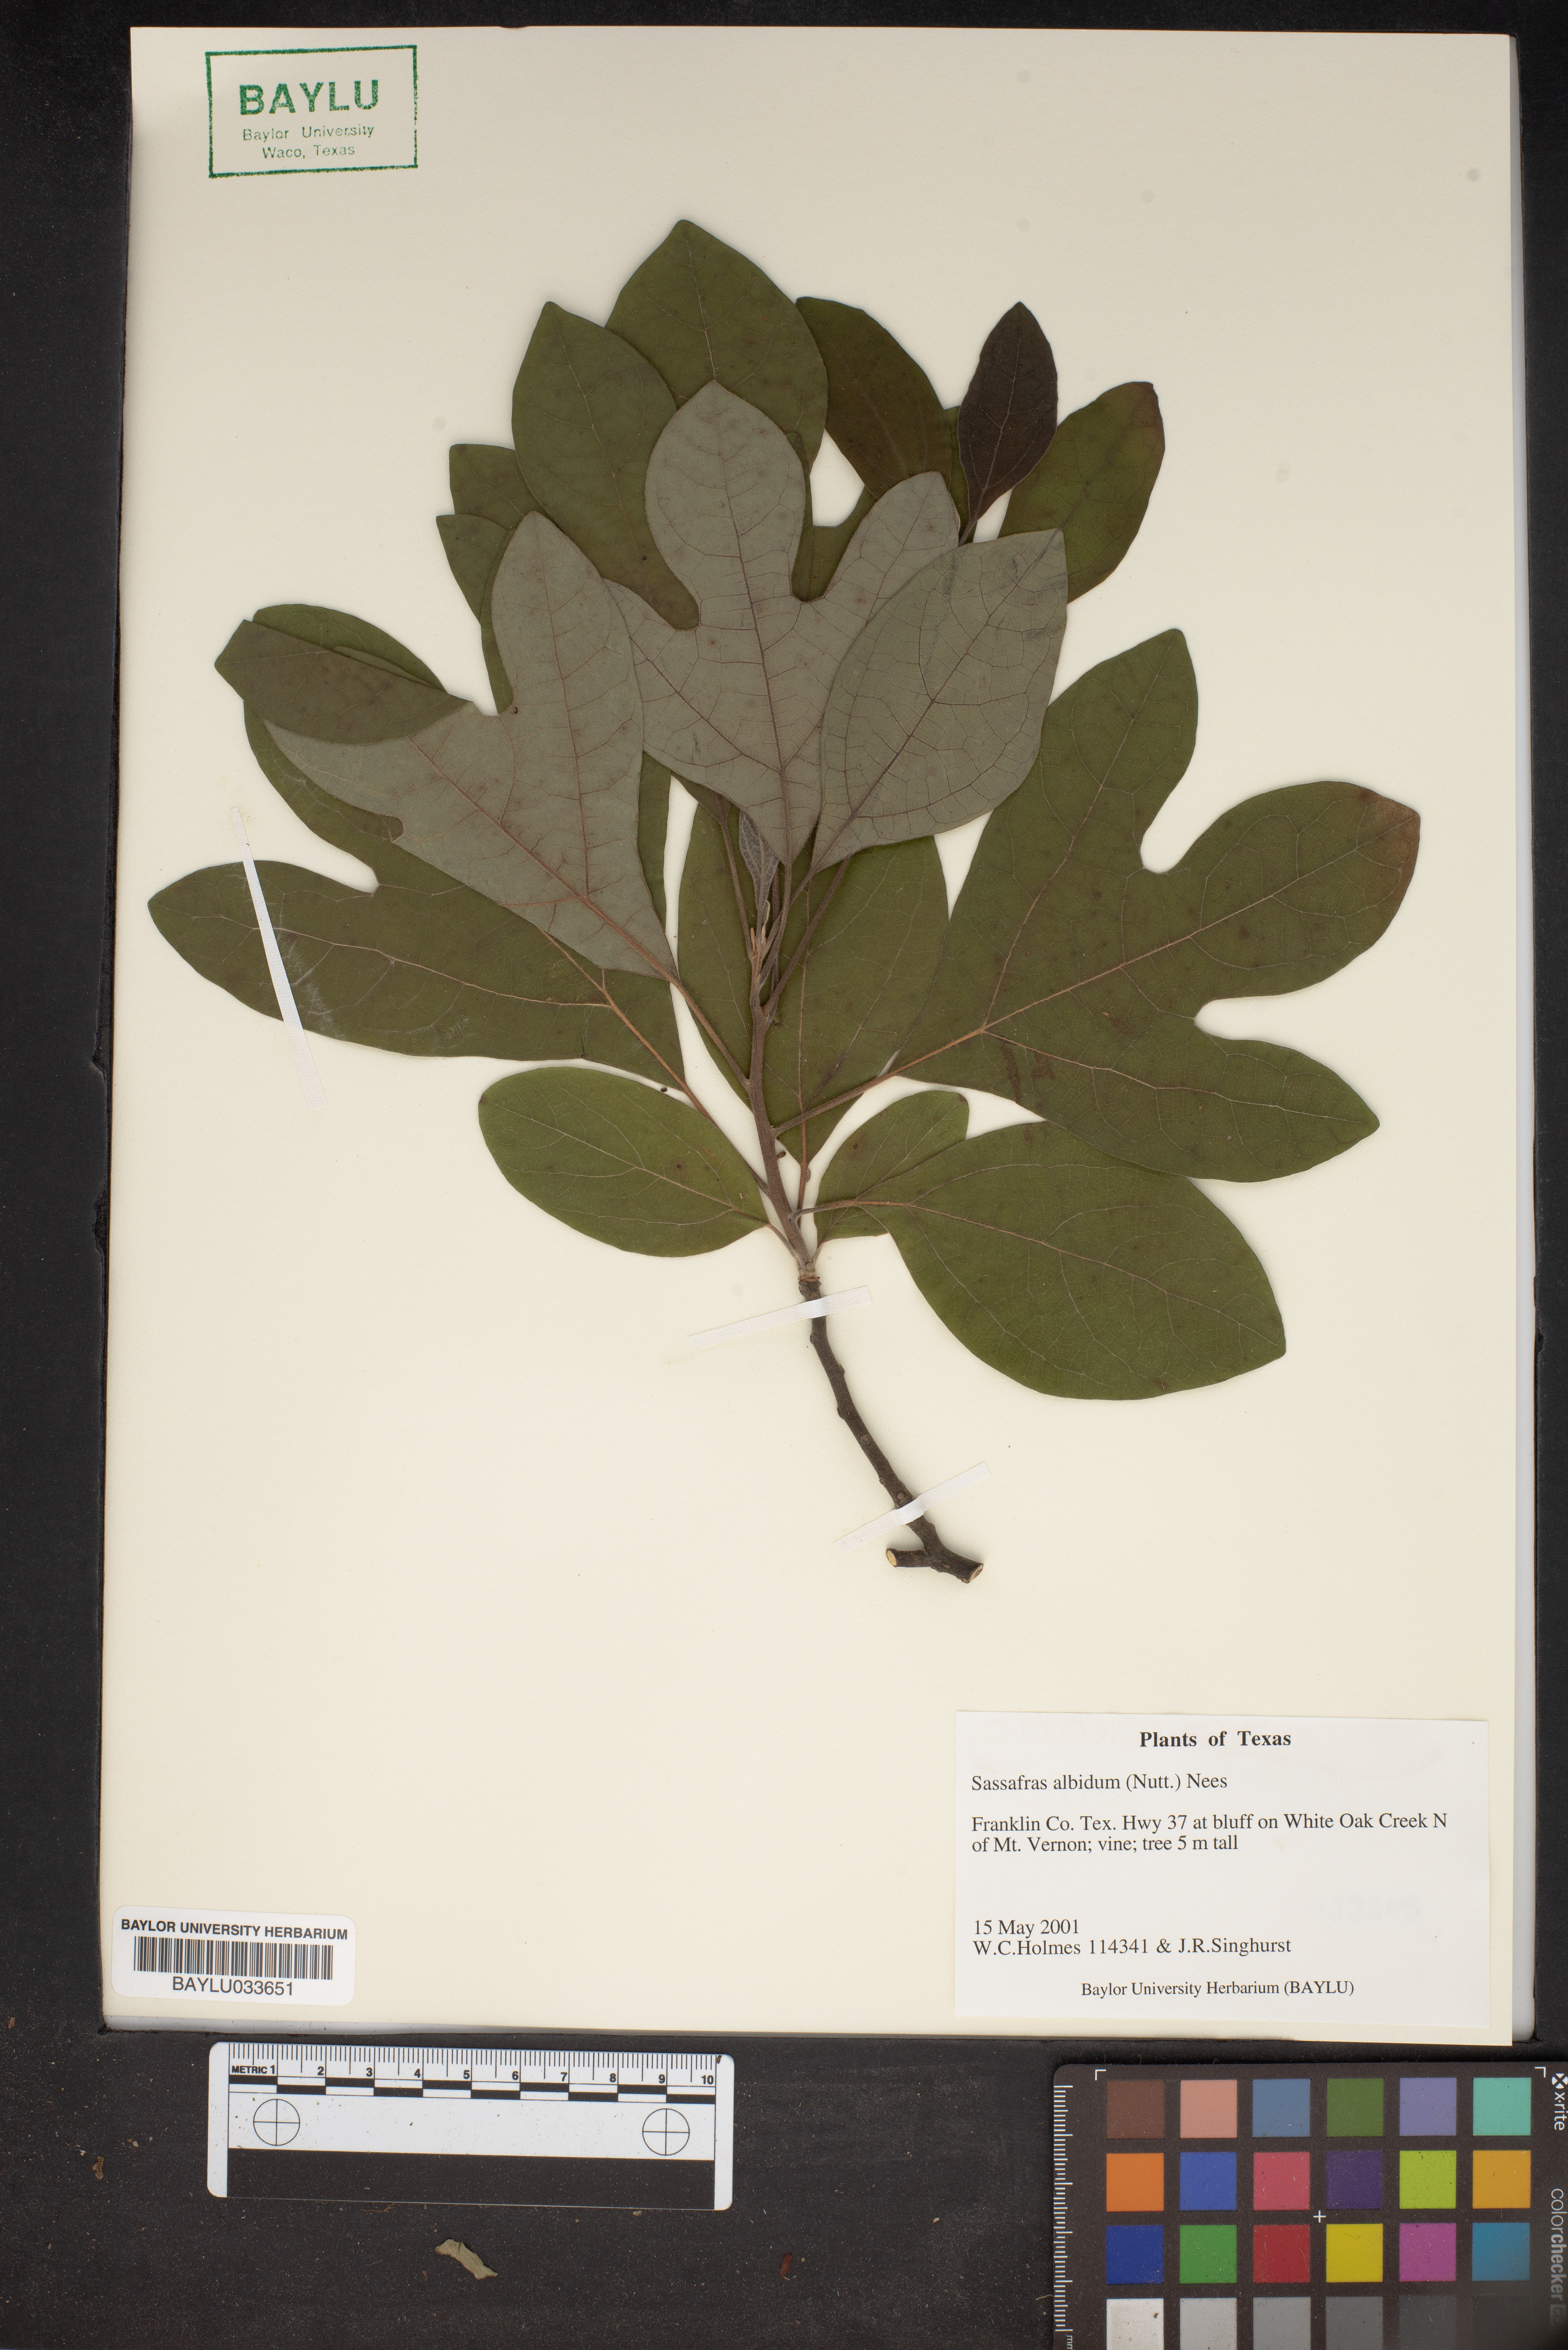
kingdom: Plantae
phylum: Tracheophyta
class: Magnoliopsida
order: Laurales
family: Lauraceae
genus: Sassafras
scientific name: Sassafras albidum
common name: Sassafras
